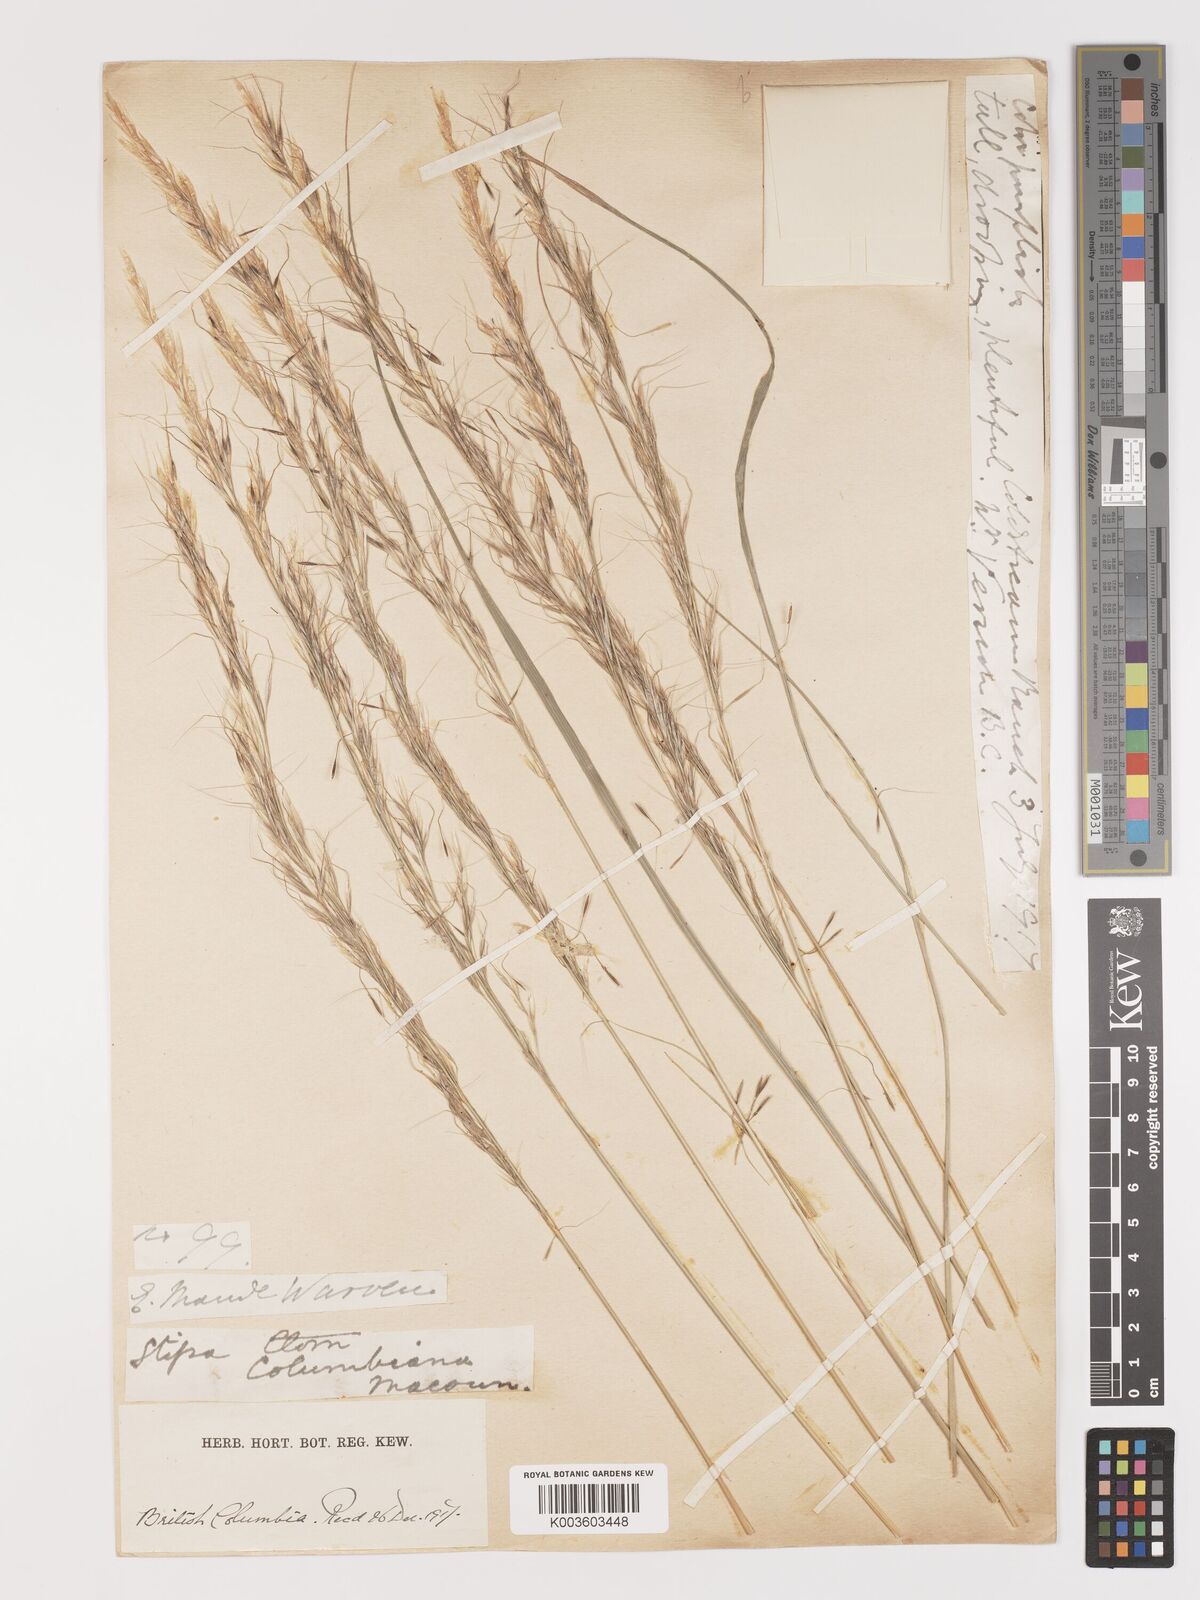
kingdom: Plantae
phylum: Tracheophyta
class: Liliopsida
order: Poales
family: Poaceae
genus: Eriocoma
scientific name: Eriocoma nelsonii
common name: Nelson's needlegrass
